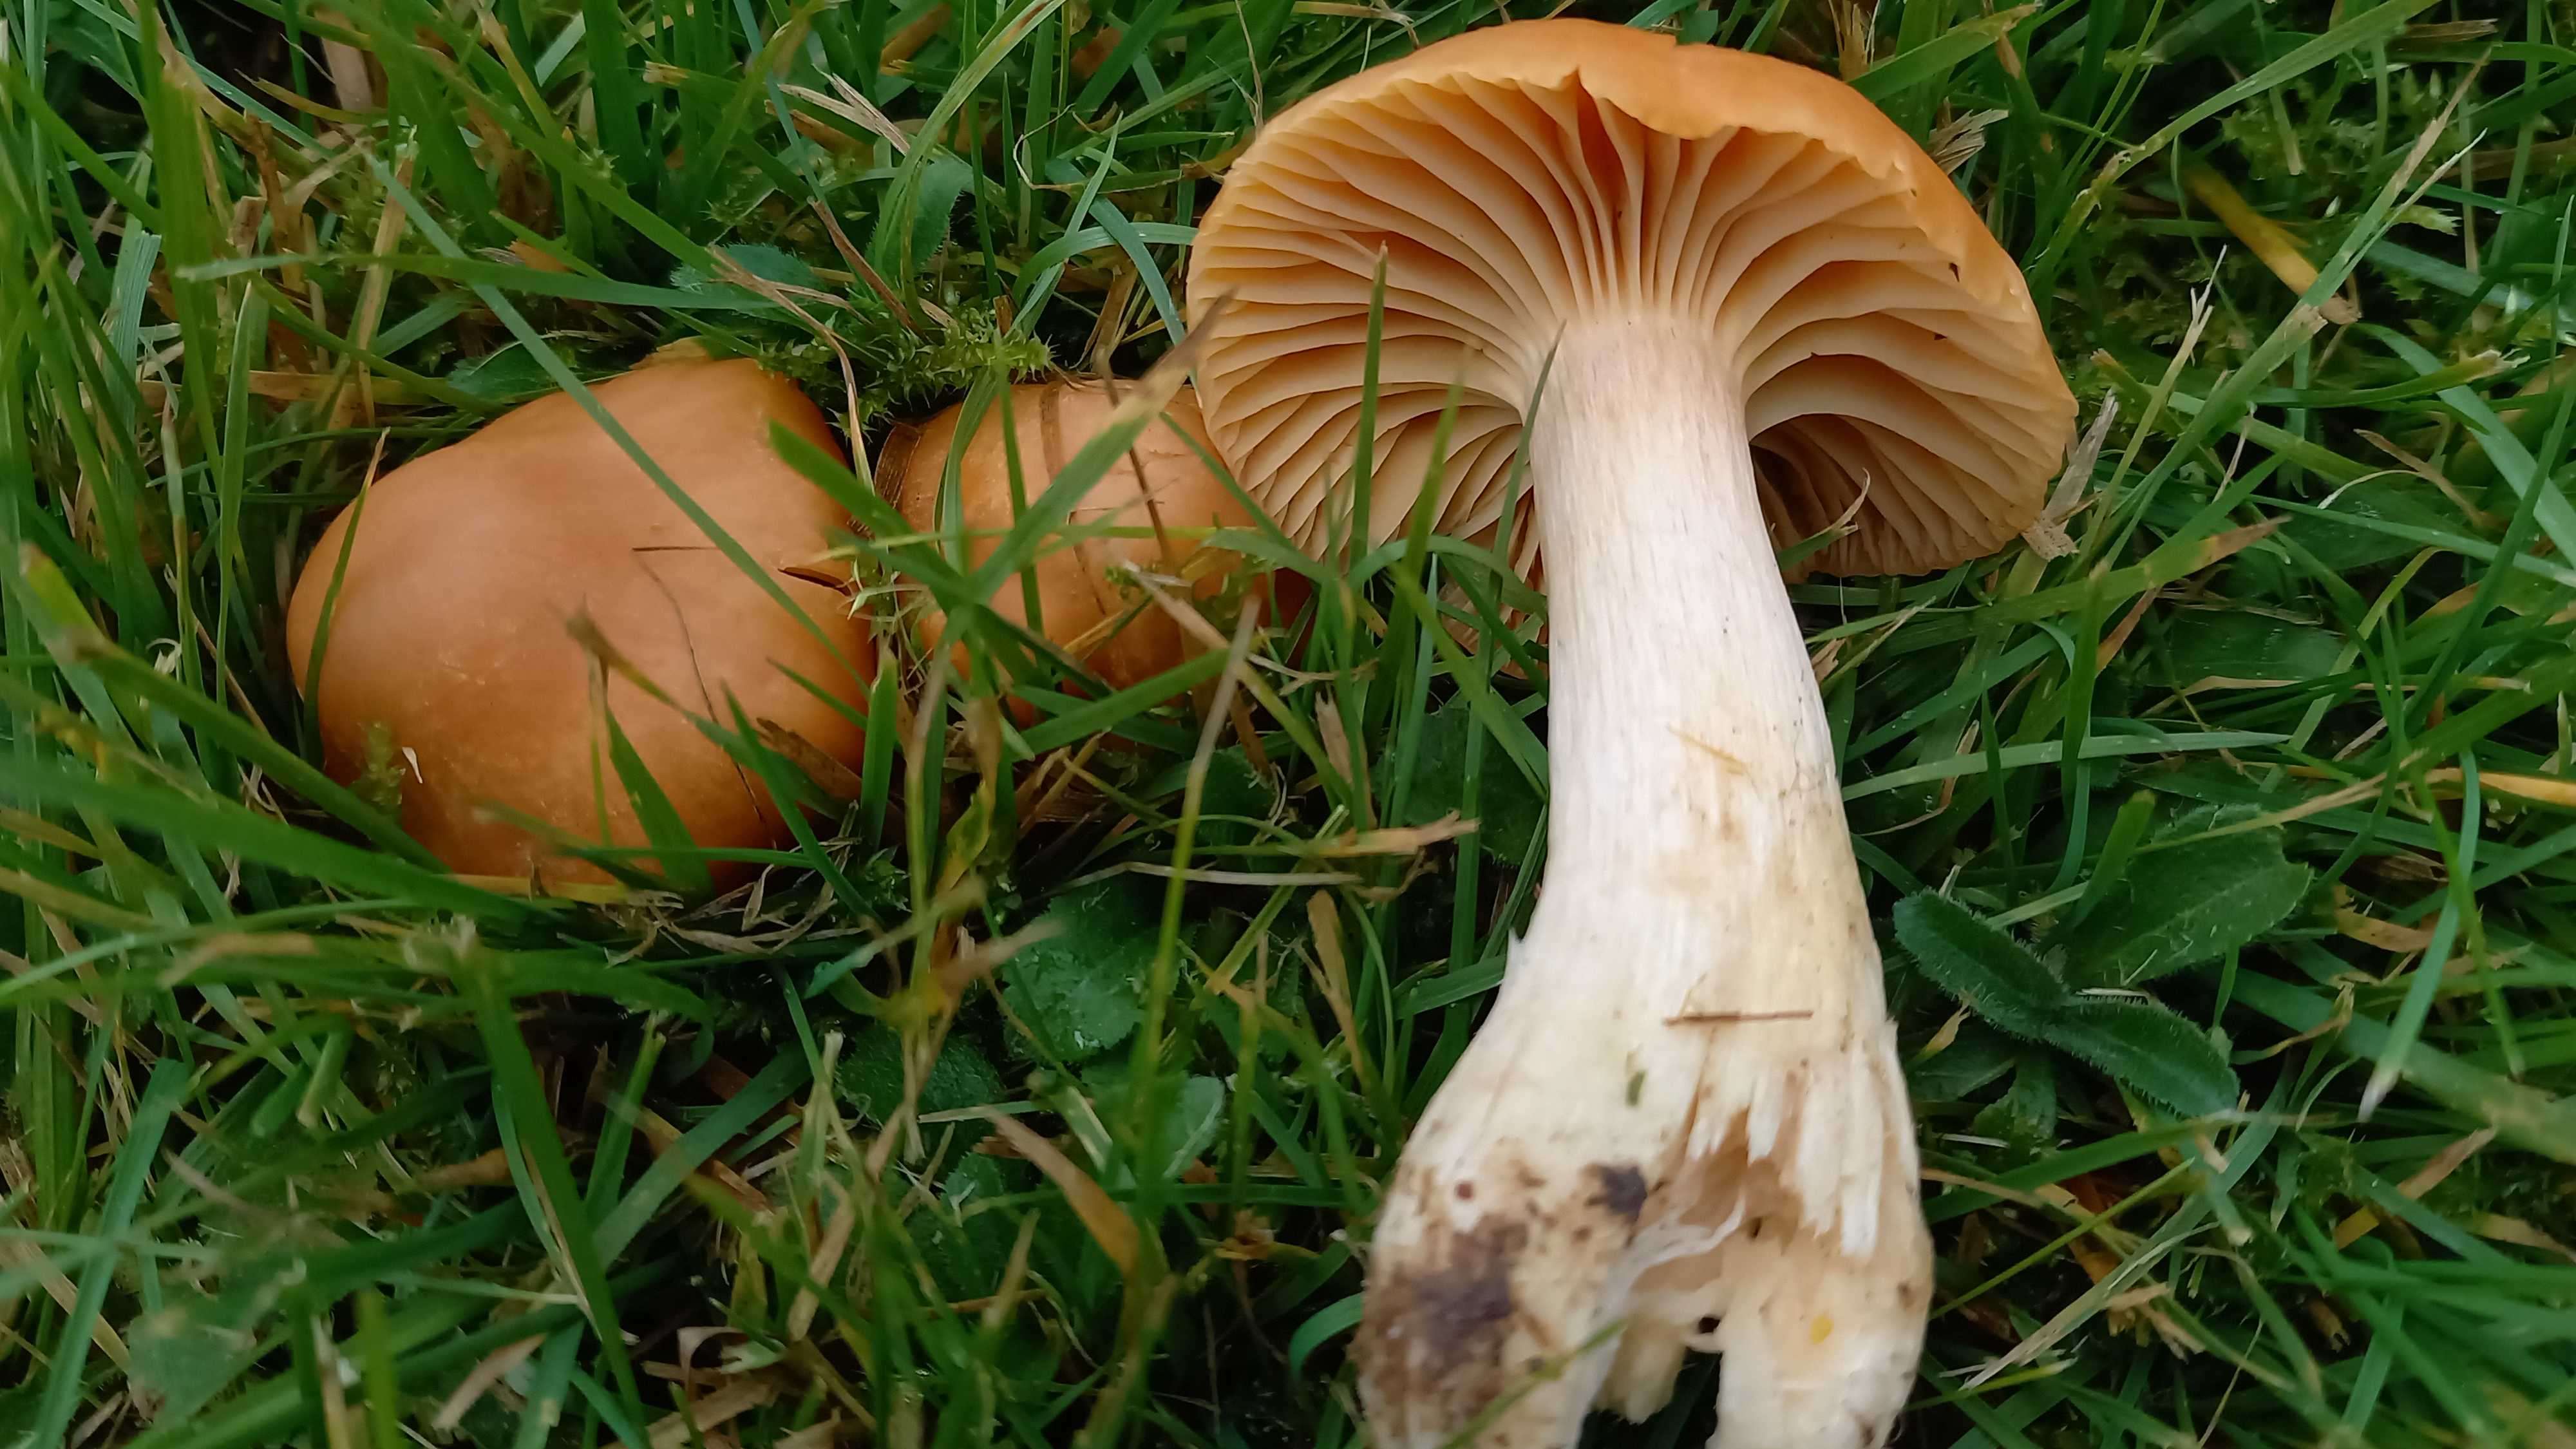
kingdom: Fungi
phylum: Basidiomycota
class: Agaricomycetes
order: Agaricales
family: Hygrophoraceae
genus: Cuphophyllus
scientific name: Cuphophyllus pratensis
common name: eng-vokshat
